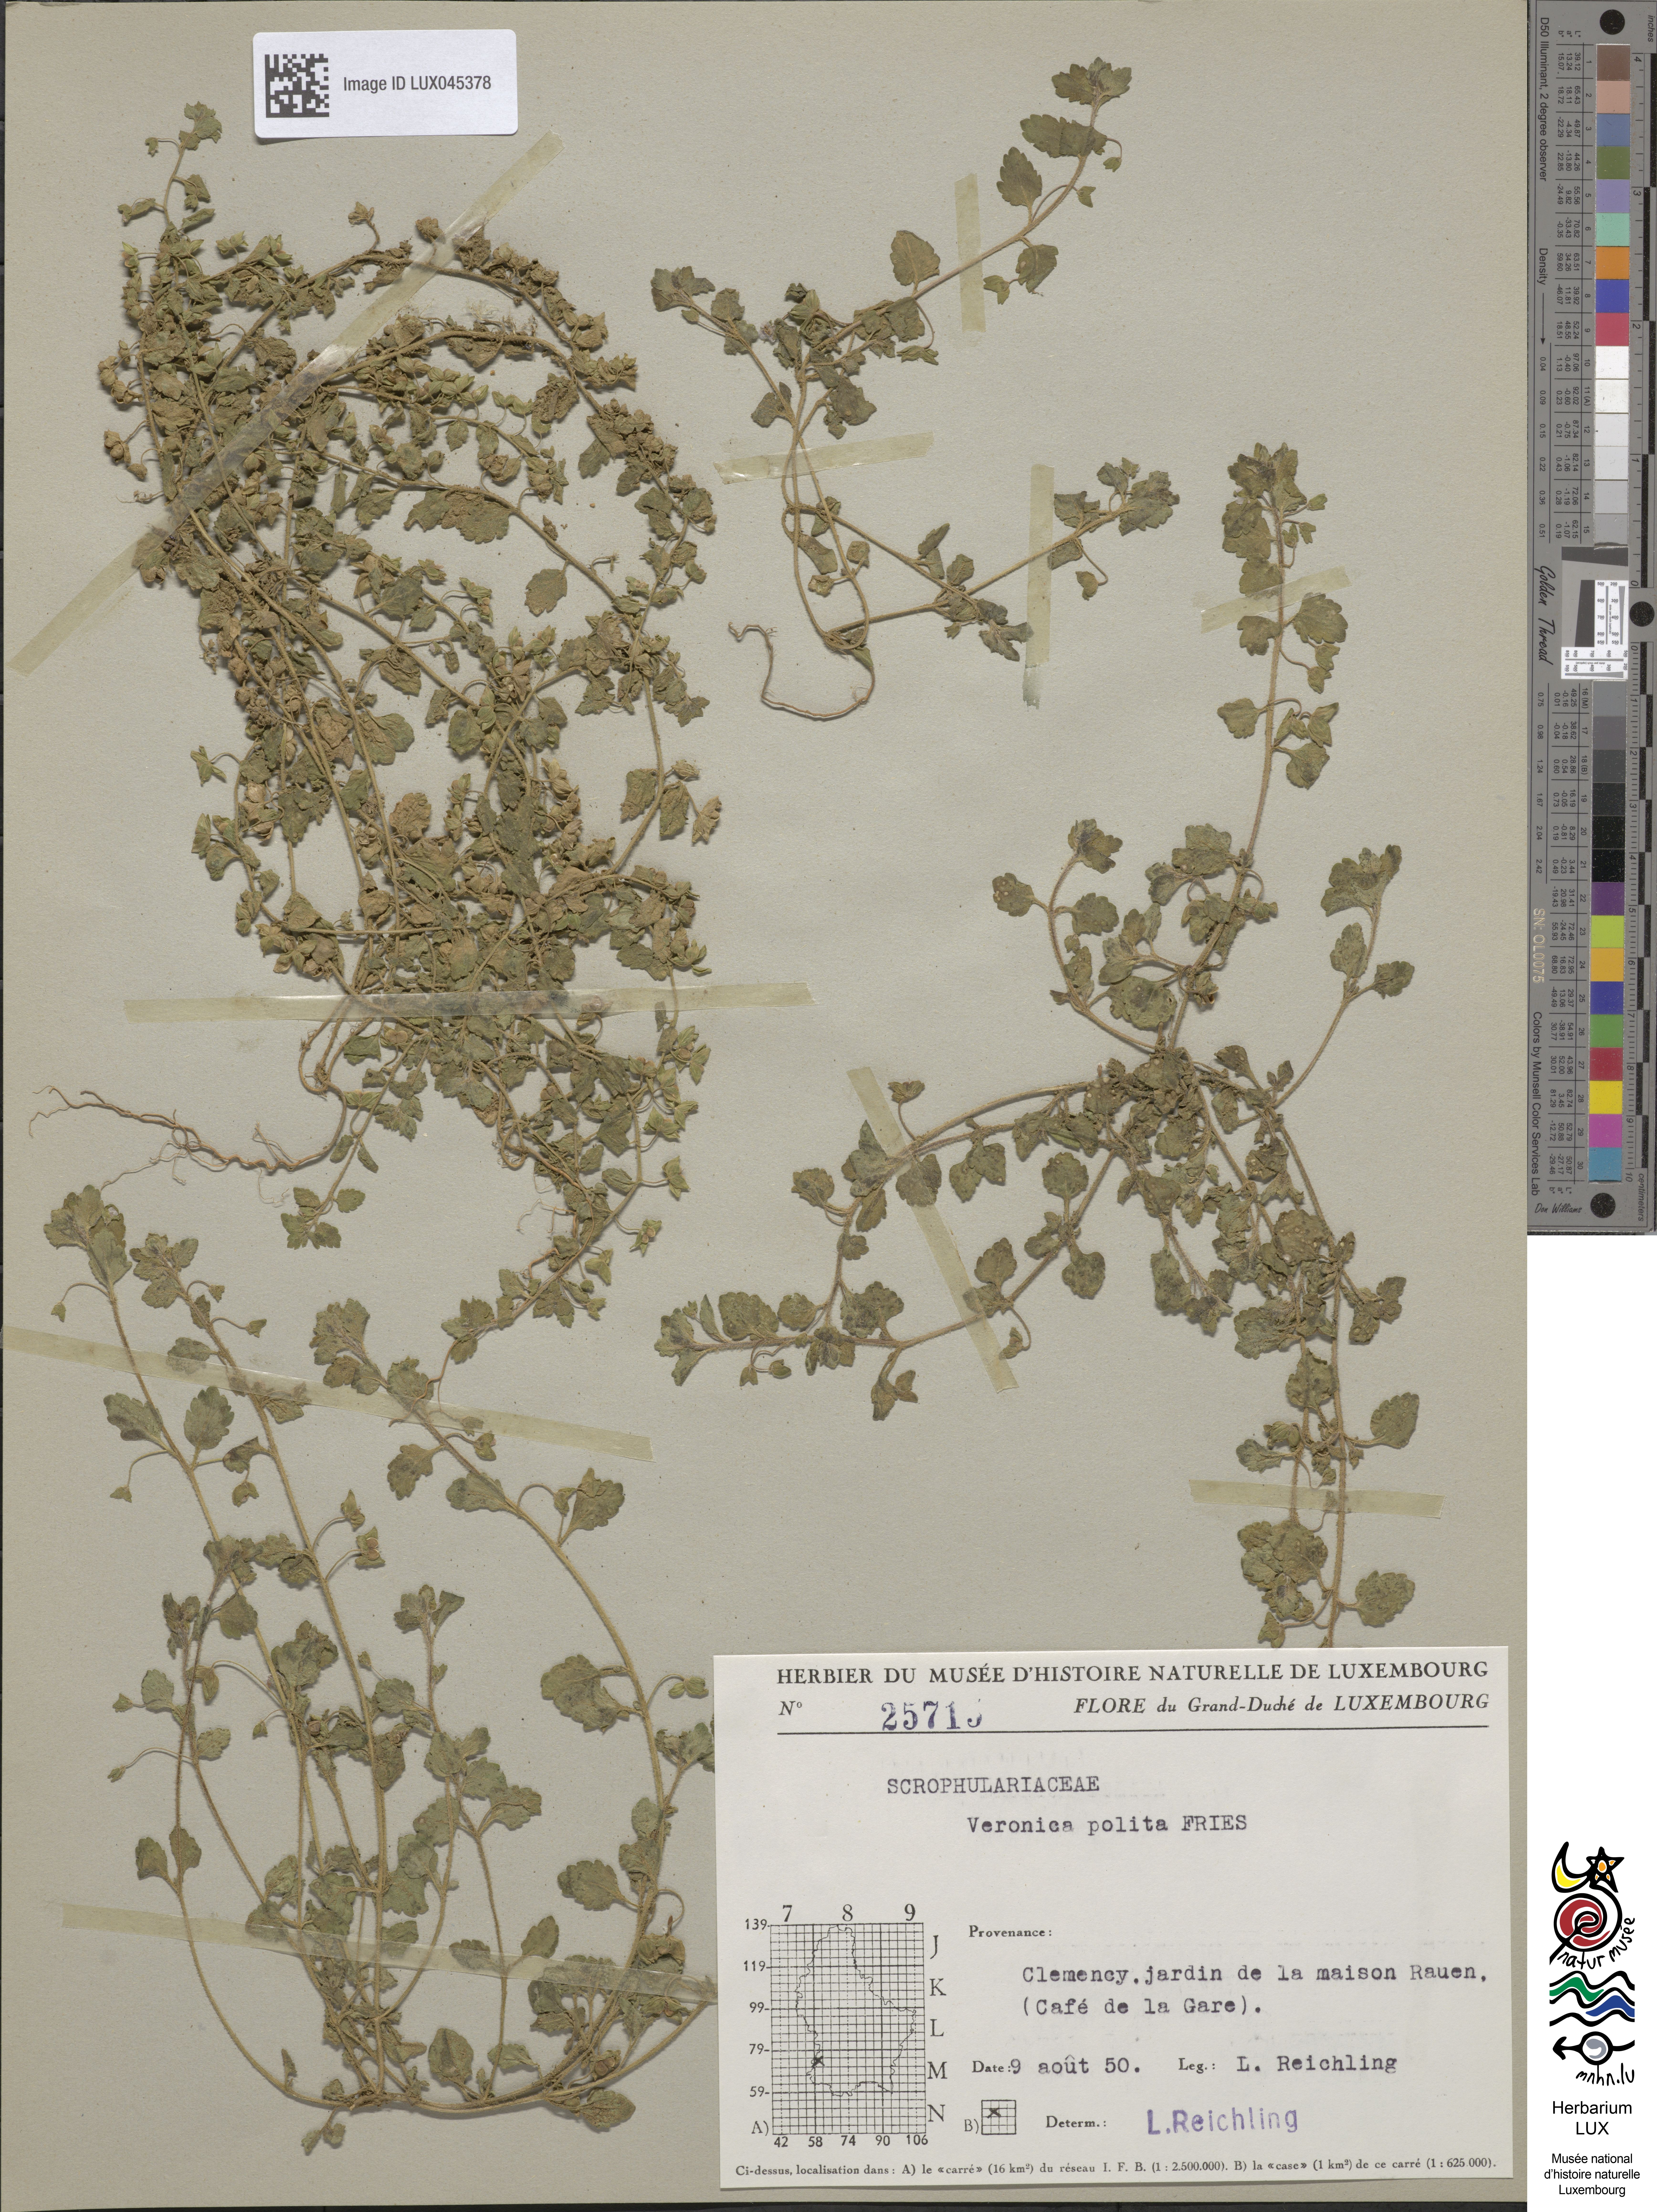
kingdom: Plantae
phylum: Tracheophyta
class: Magnoliopsida
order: Lamiales
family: Plantaginaceae
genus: Veronica
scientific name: Veronica polita
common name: Grey field-speedwell
